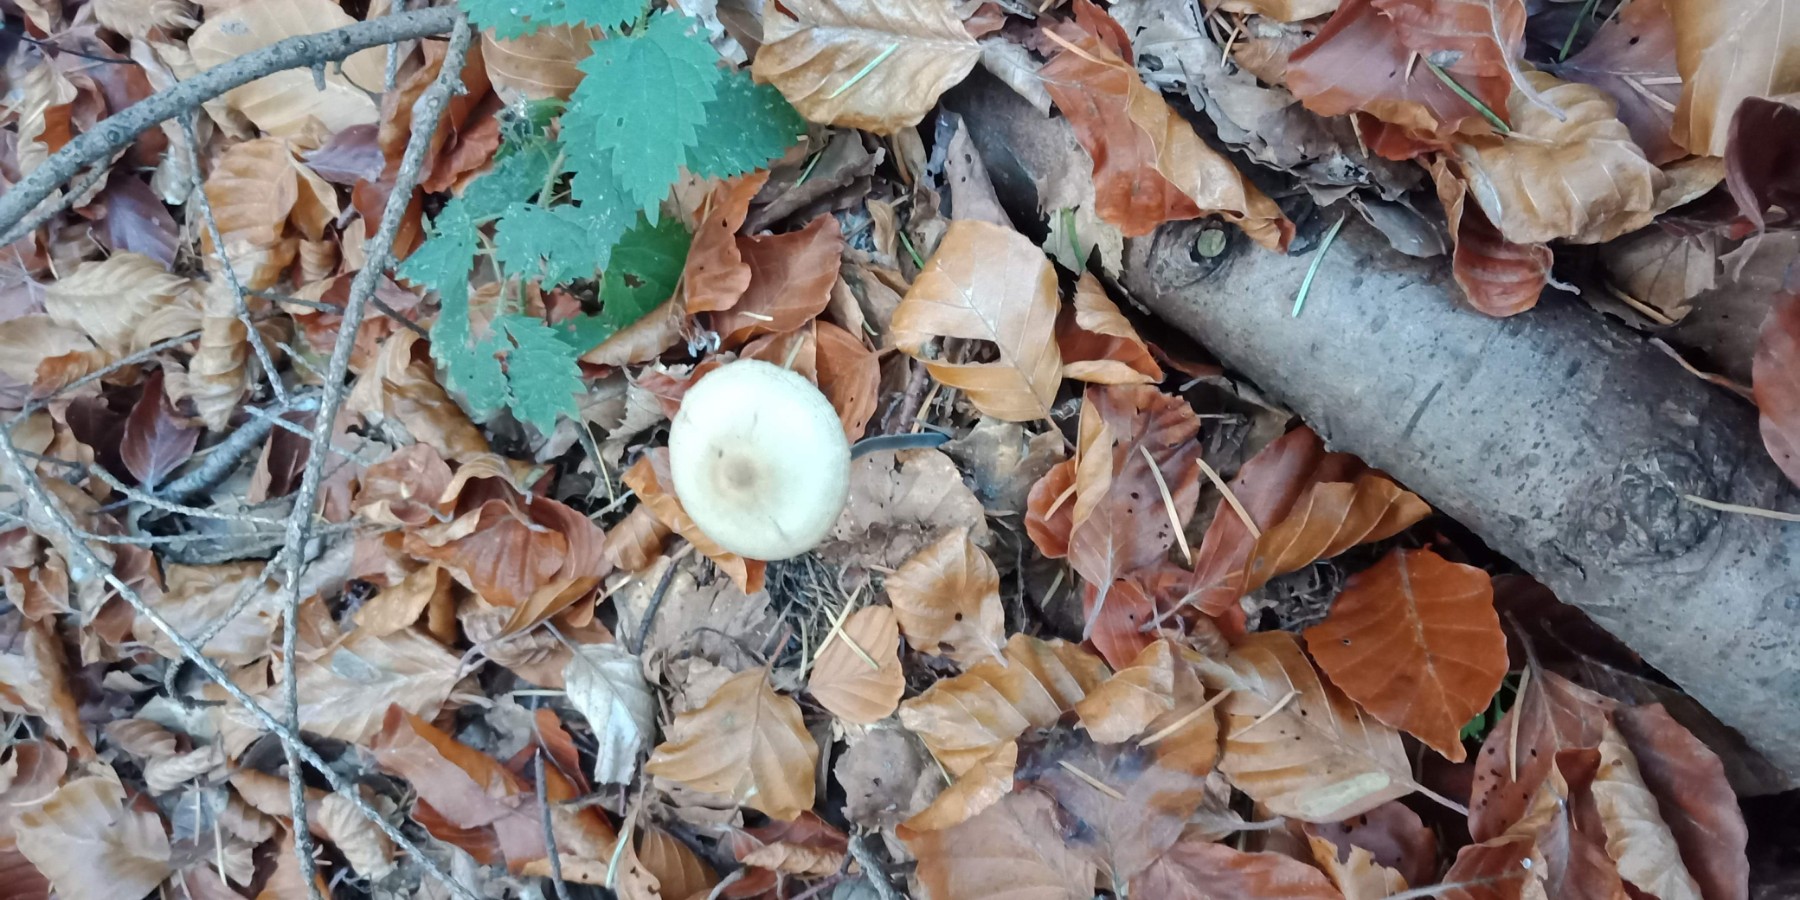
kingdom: Fungi
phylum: Basidiomycota
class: Agaricomycetes
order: Agaricales
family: Omphalotaceae
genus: Mycetinis
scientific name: Mycetinis alliaceus
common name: stor løghat
